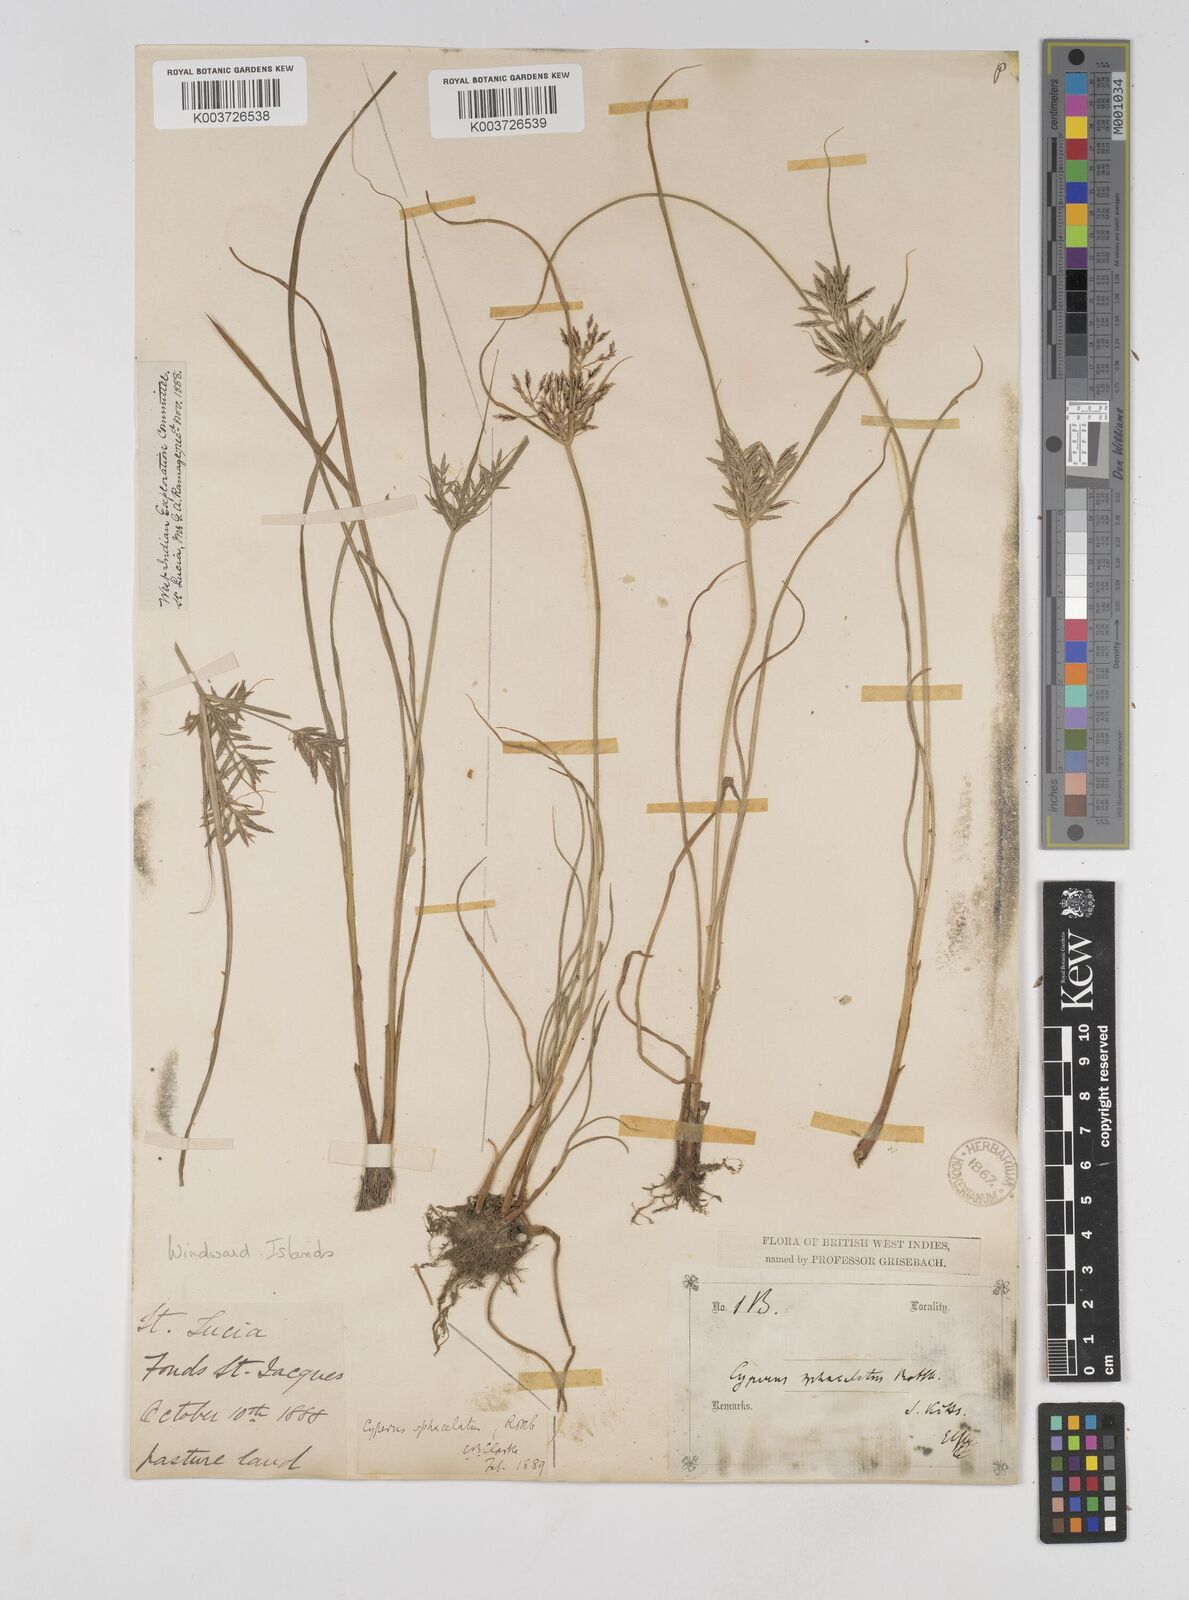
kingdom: Plantae
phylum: Tracheophyta
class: Liliopsida
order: Poales
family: Cyperaceae
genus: Cyperus
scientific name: Cyperus sphacelatus
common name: Roadside flatsedge
